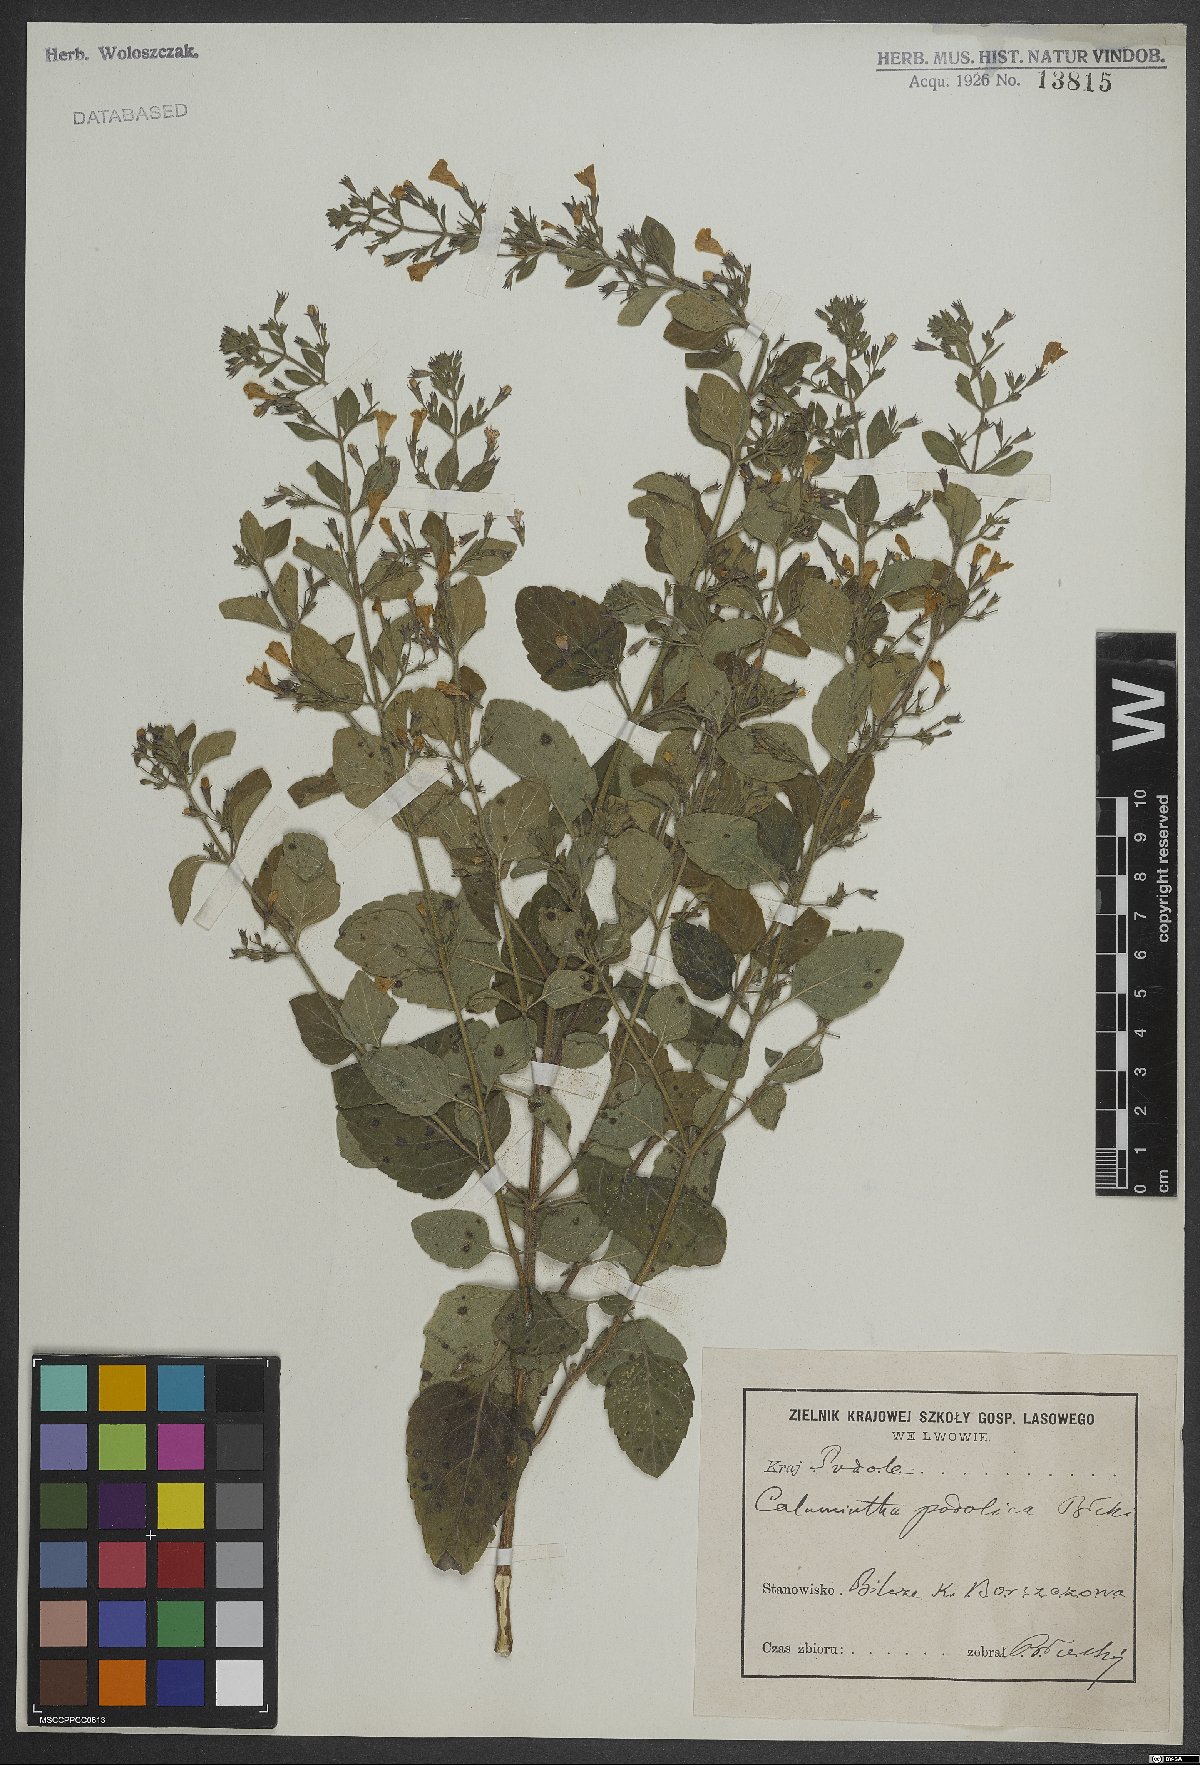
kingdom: Plantae
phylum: Tracheophyta
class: Magnoliopsida
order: Lamiales
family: Lamiaceae
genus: Calamintha
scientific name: Calamintha
